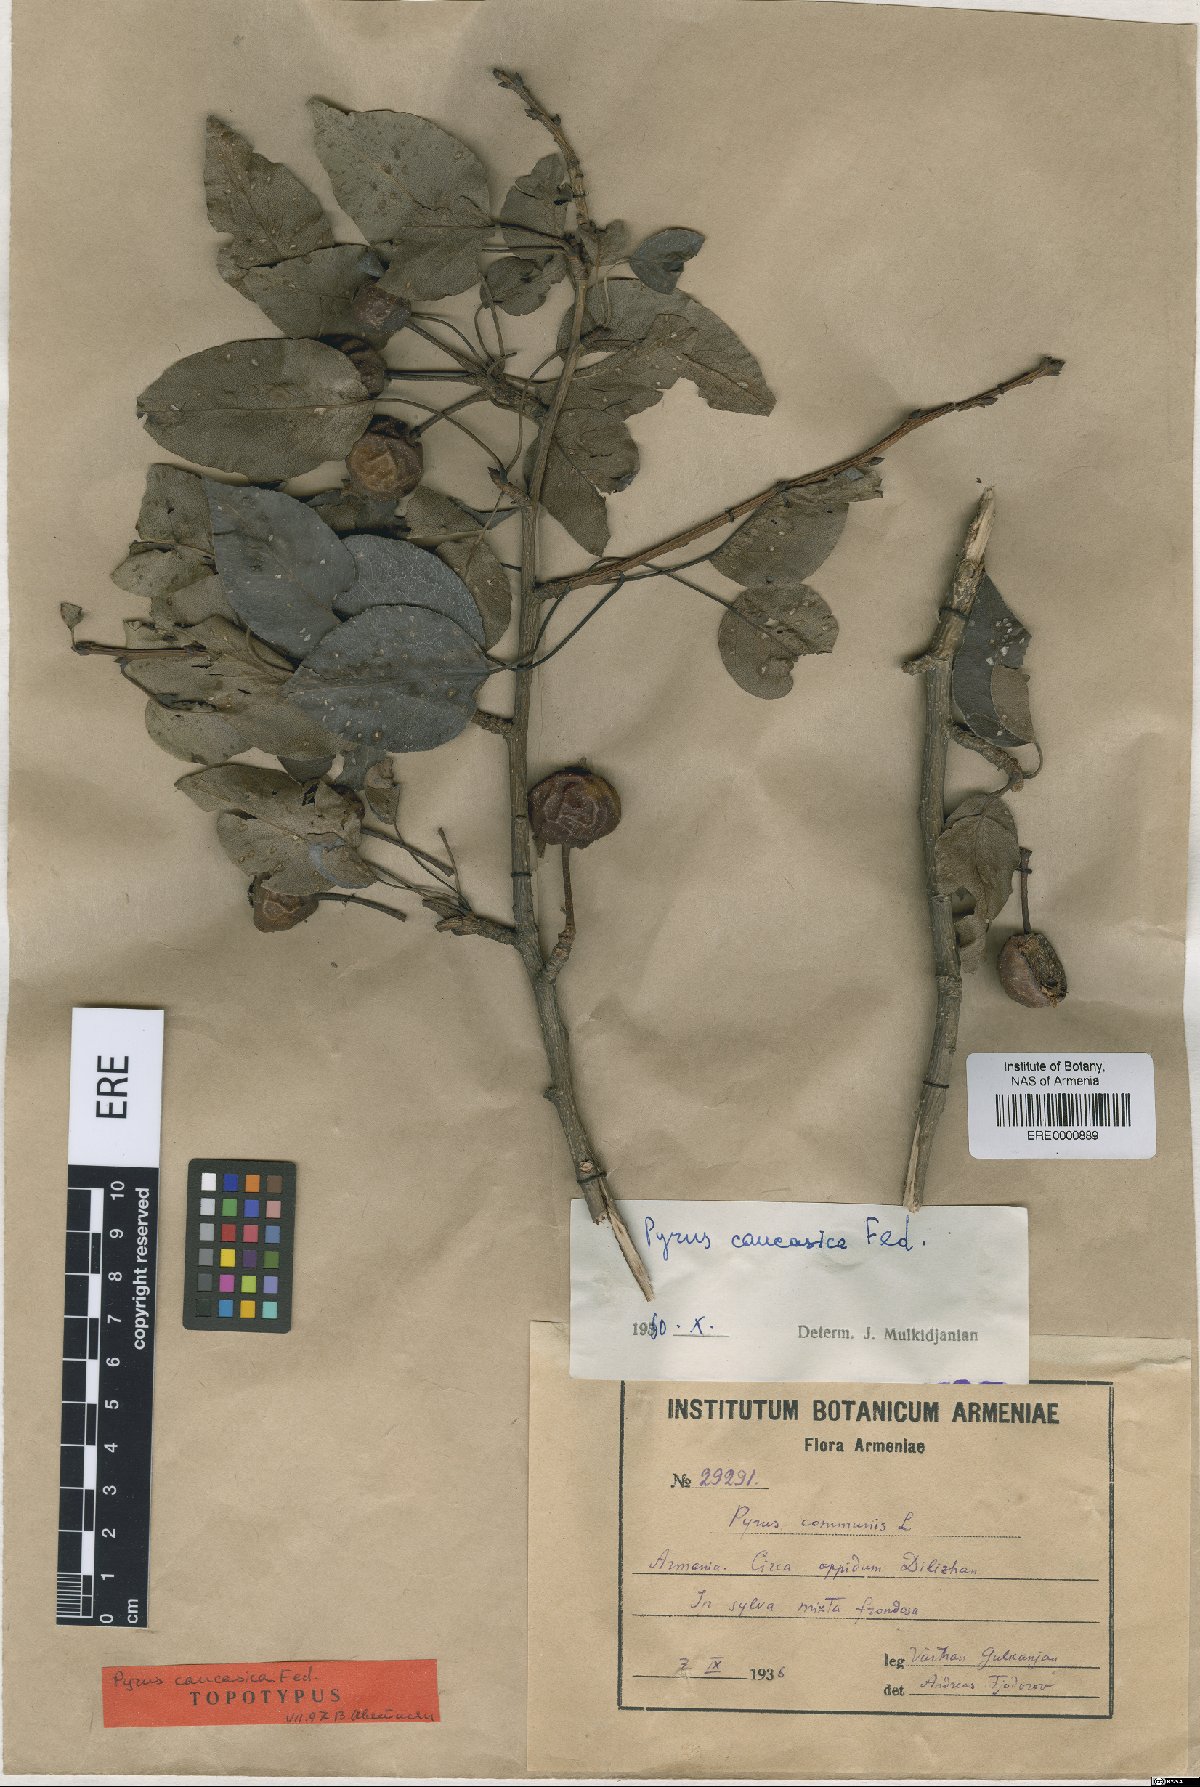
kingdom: Plantae
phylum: Tracheophyta
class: Magnoliopsida
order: Rosales
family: Rosaceae
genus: Pyrus
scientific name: Pyrus communis
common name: Pear
